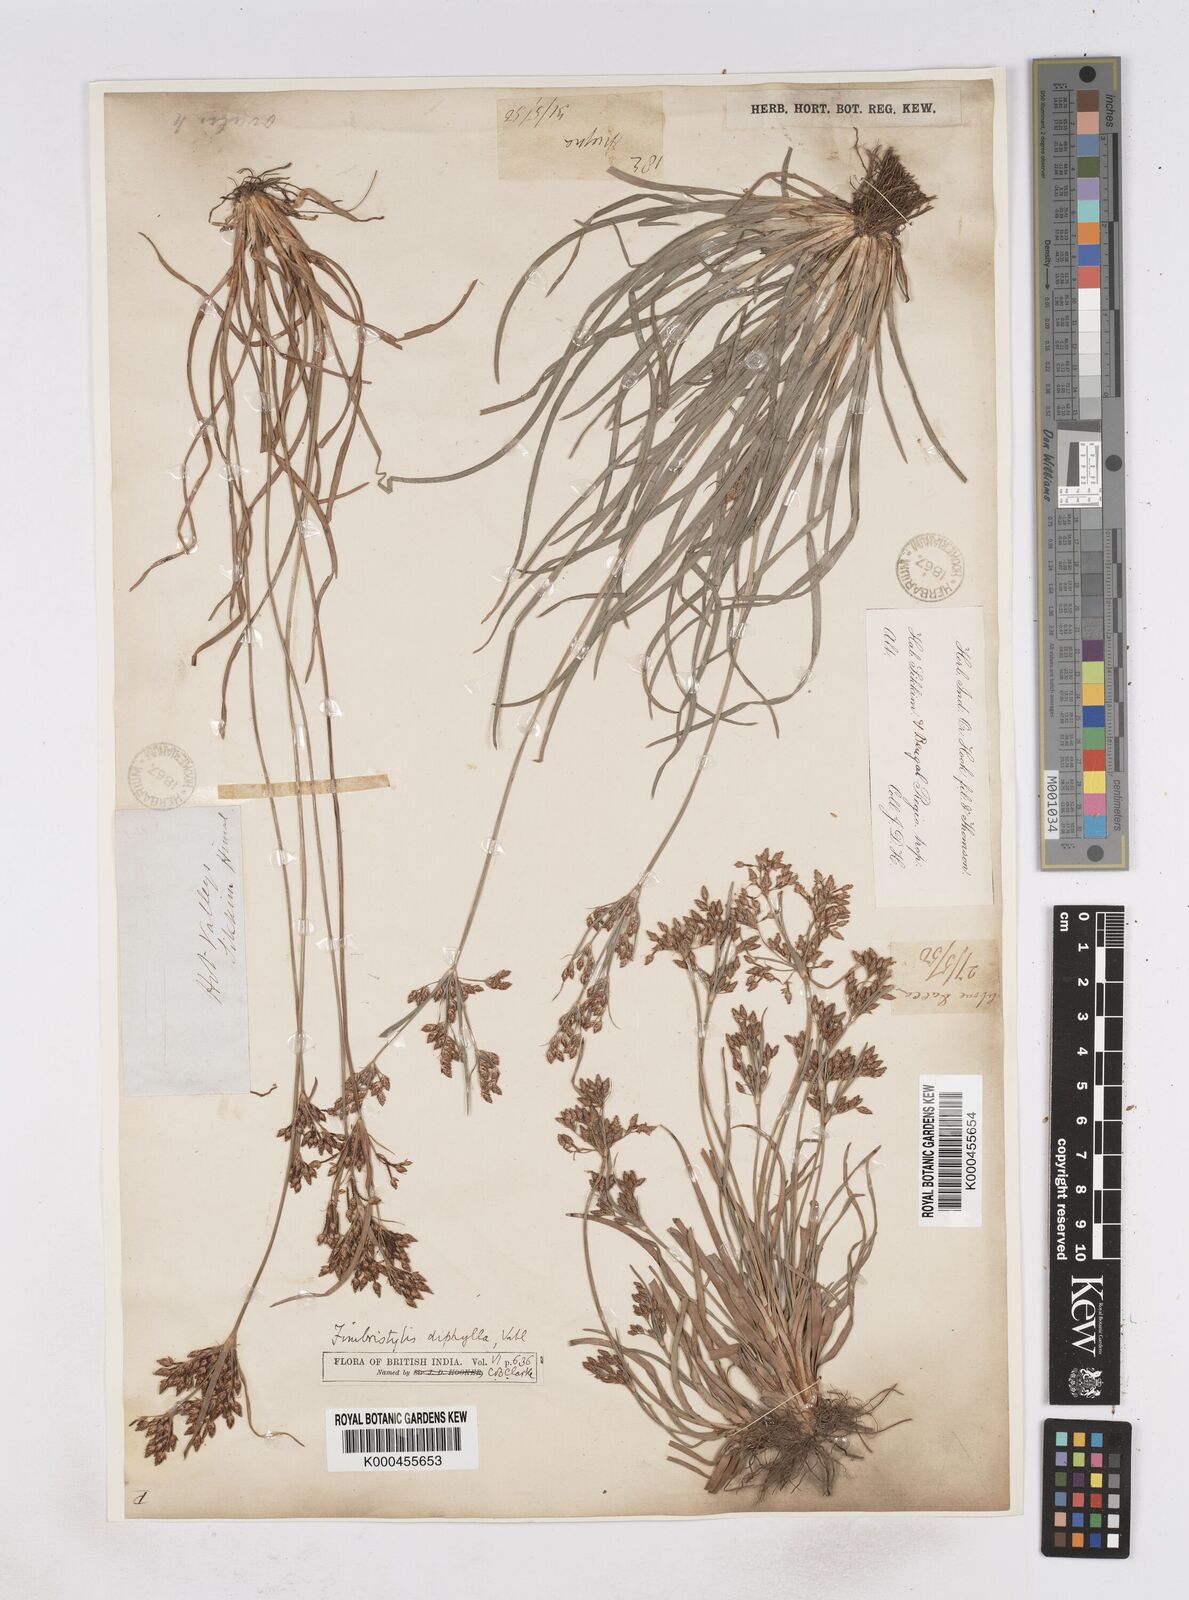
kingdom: Plantae
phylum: Tracheophyta
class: Liliopsida
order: Poales
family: Cyperaceae
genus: Fimbristylis
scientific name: Fimbristylis dichotoma
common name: Forked fimbry
